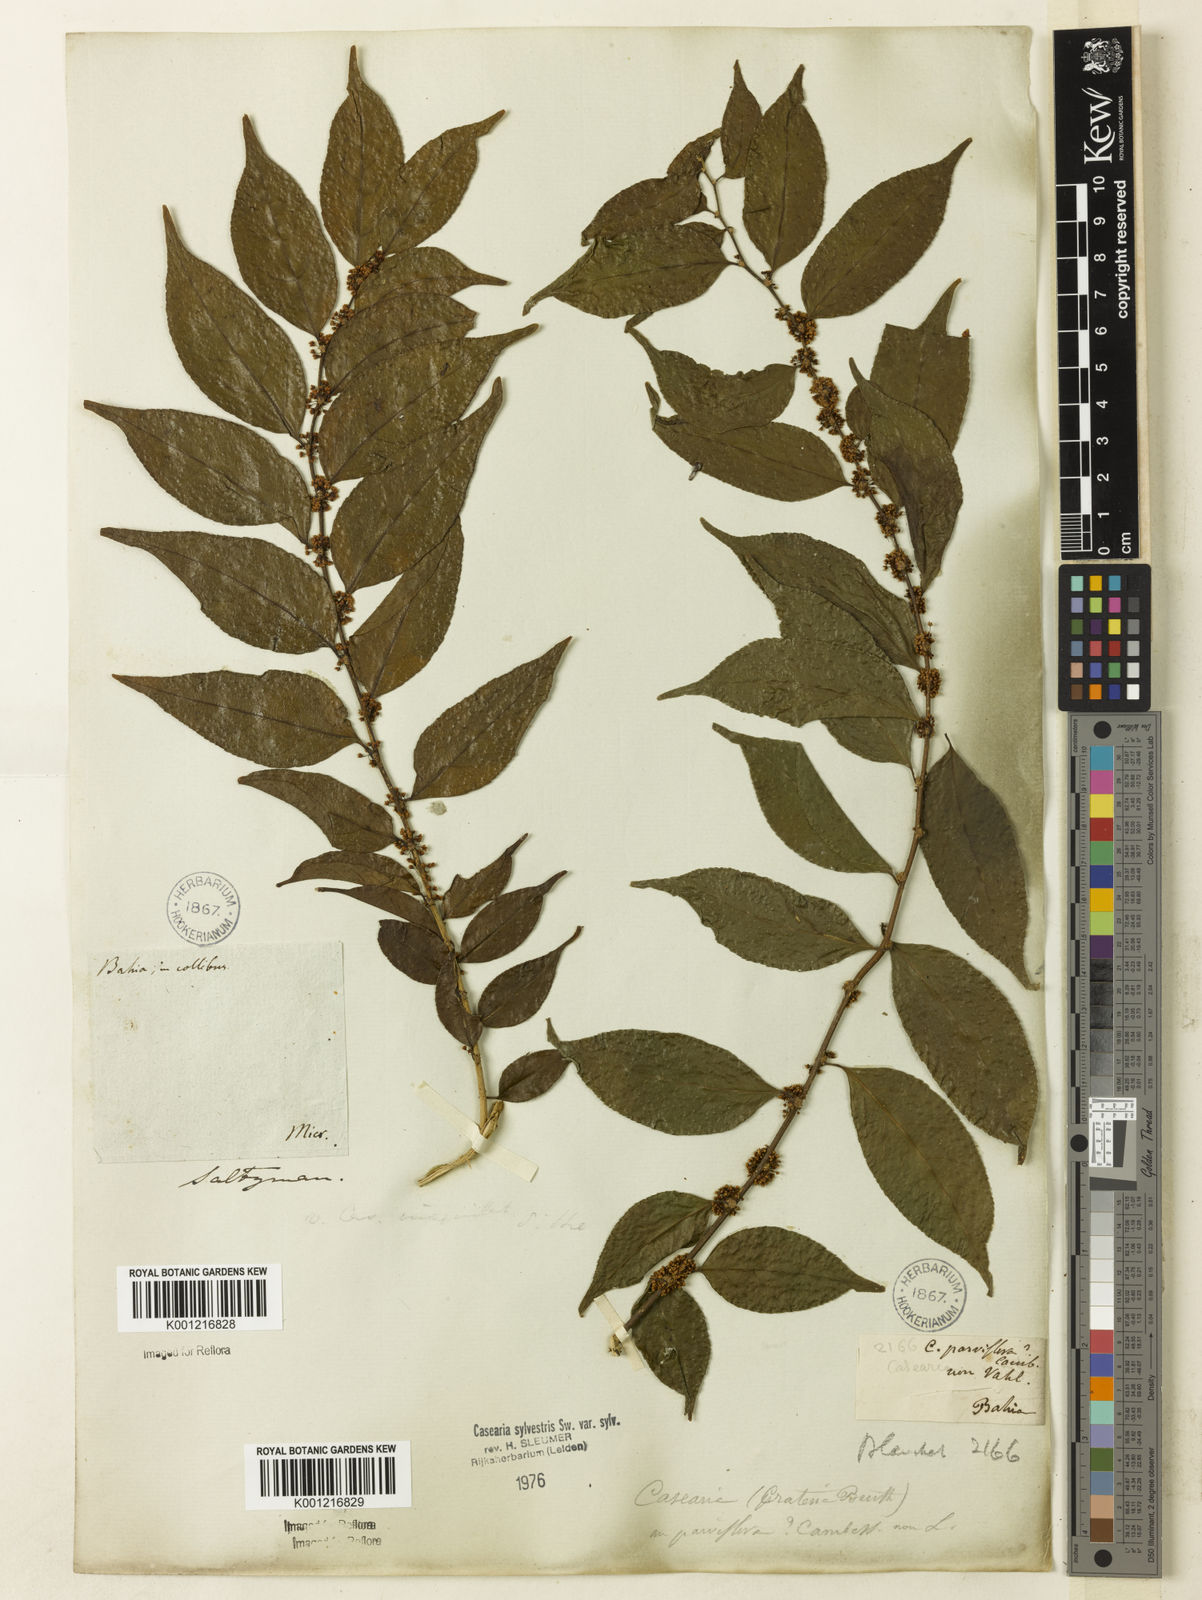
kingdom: Plantae
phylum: Tracheophyta
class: Magnoliopsida
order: Malpighiales
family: Salicaceae
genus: Casearia
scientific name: Casearia sylvestris
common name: Wild sage
